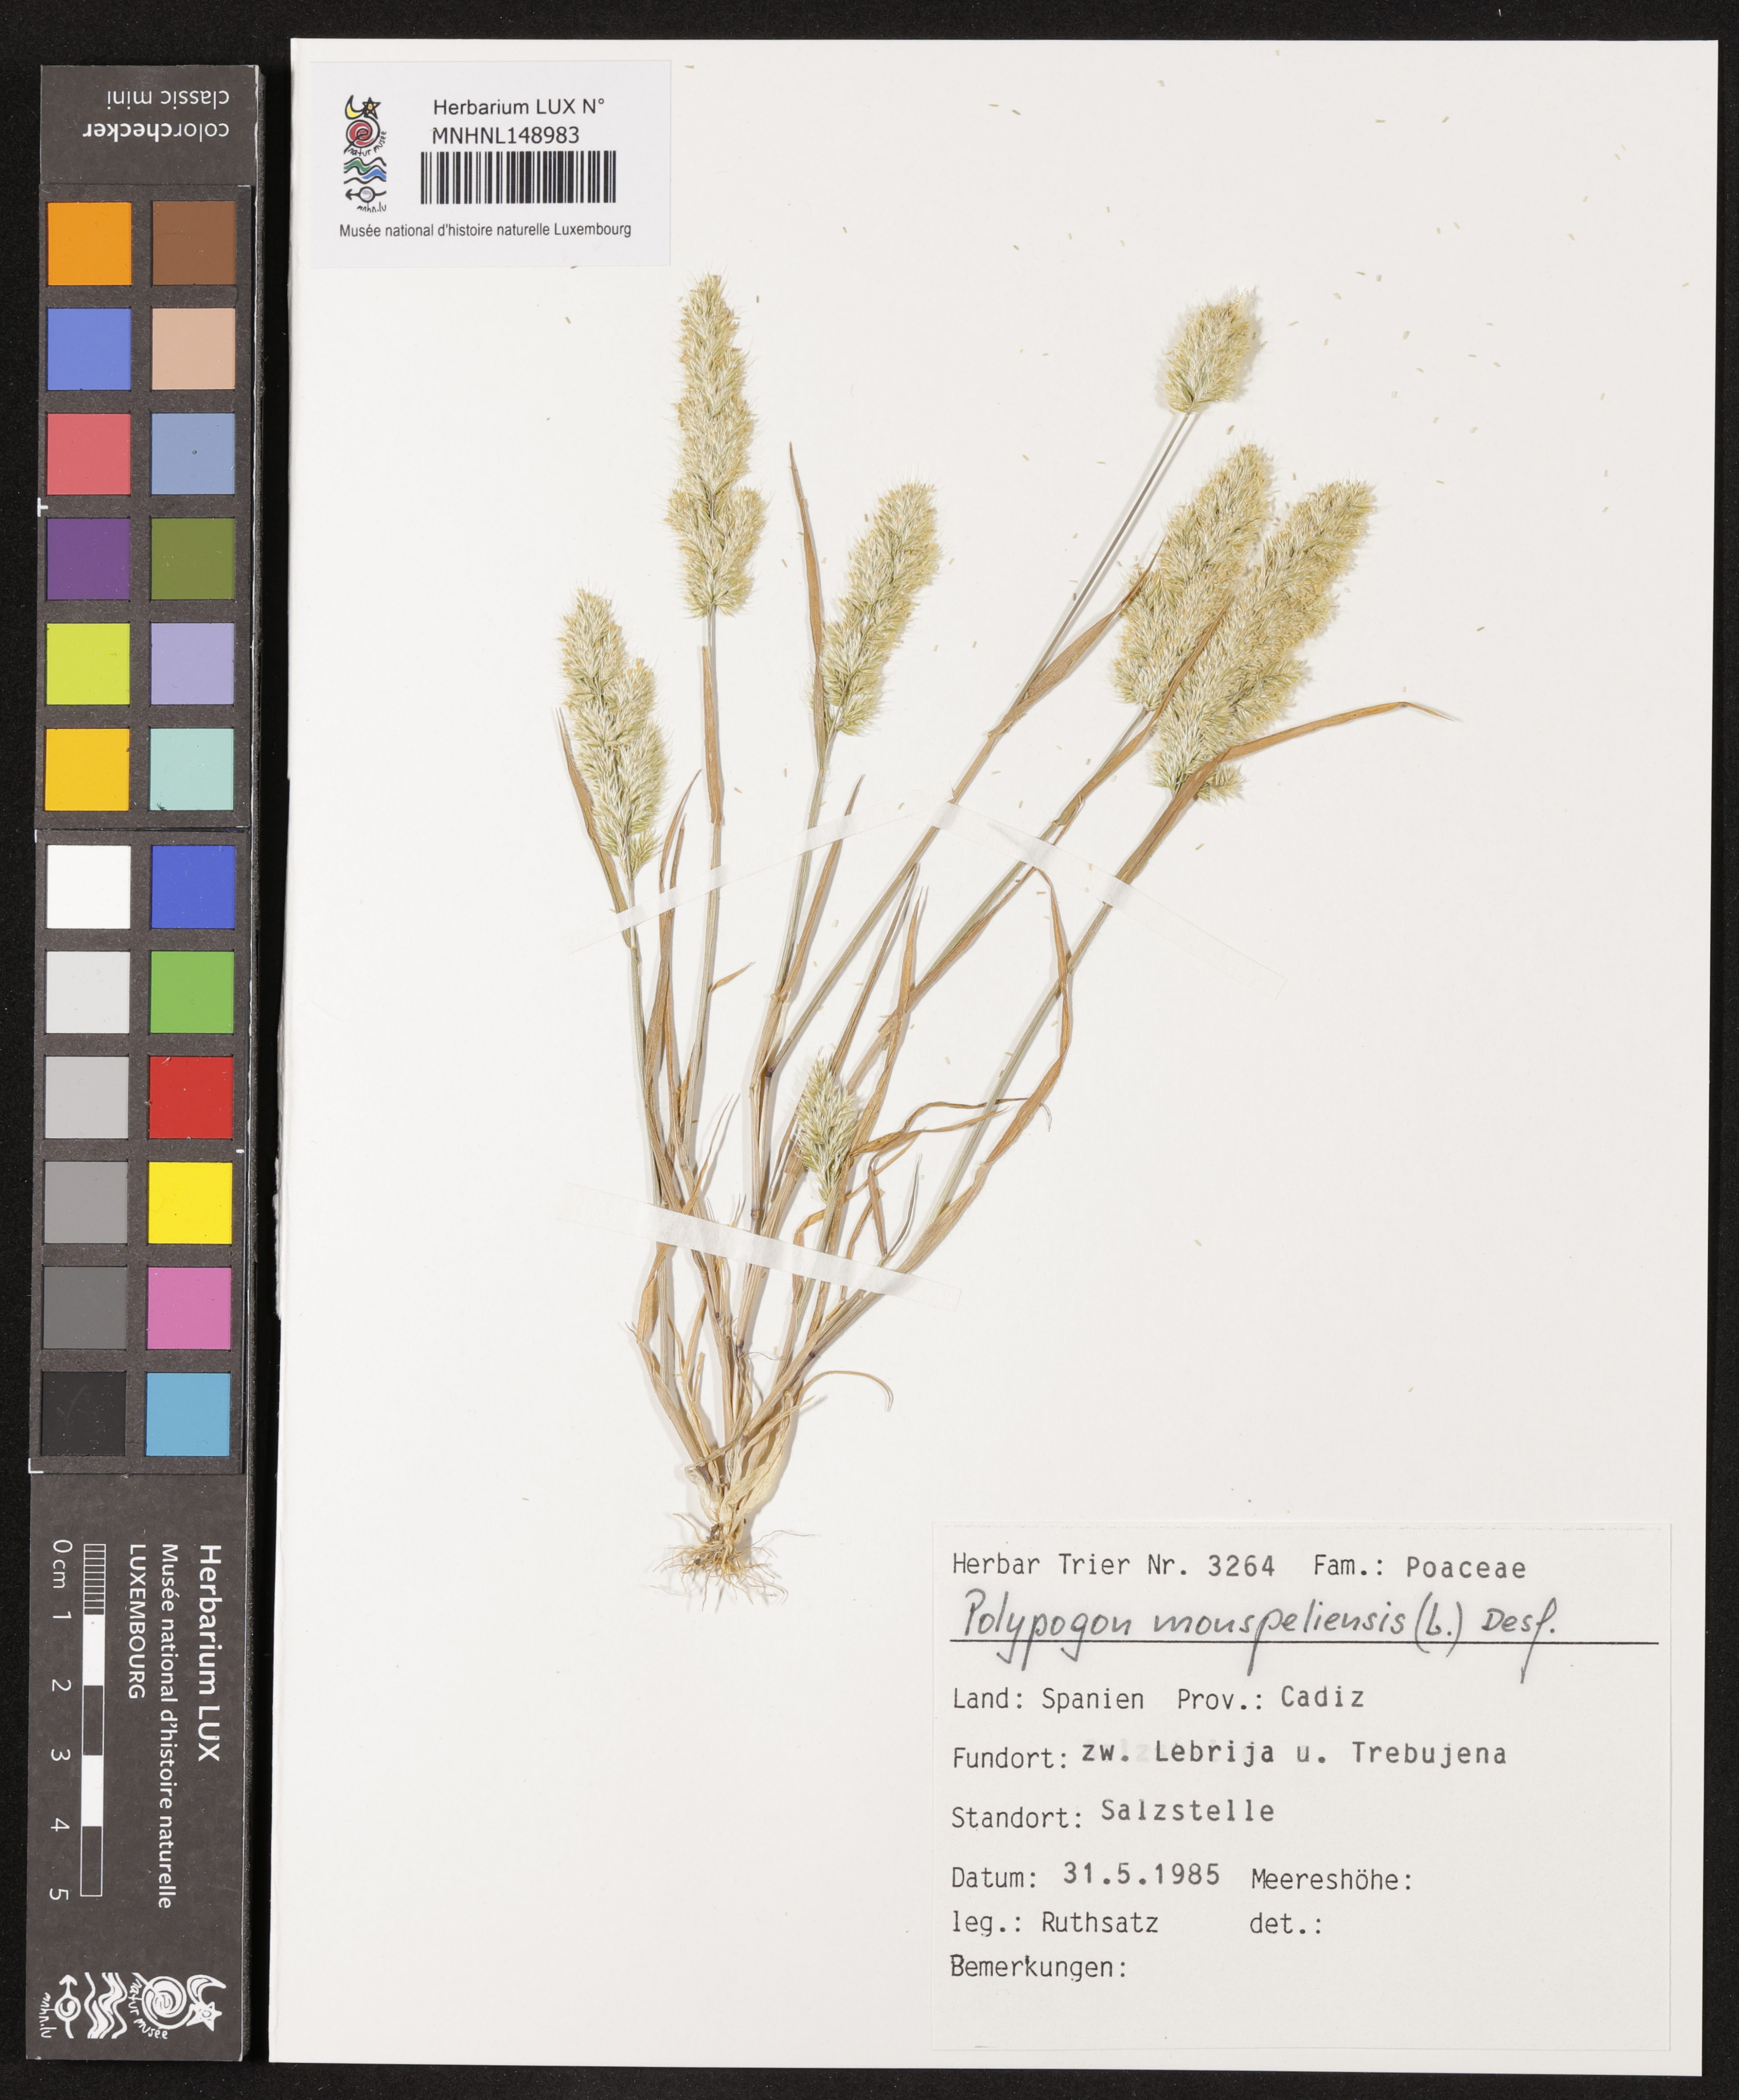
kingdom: Animalia
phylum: Arthropoda
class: Insecta
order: Lepidoptera
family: Erebidae
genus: Polypogon
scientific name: Polypogon
